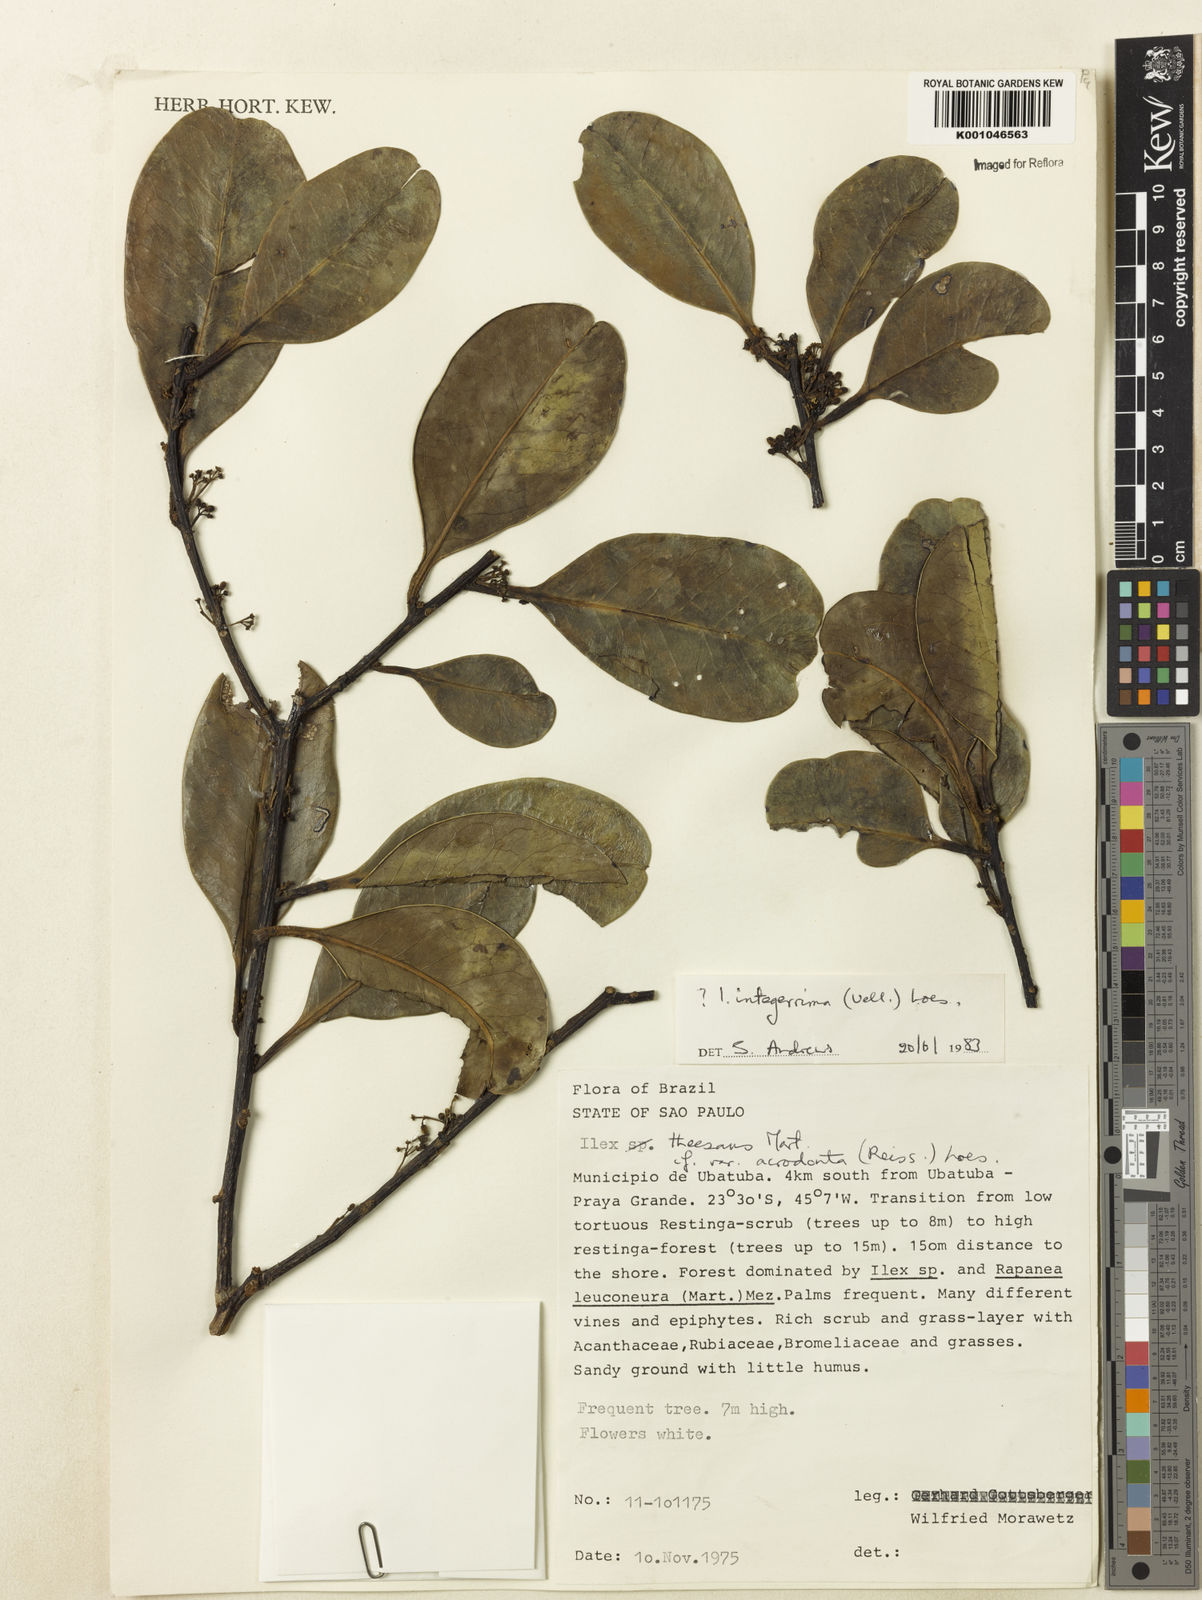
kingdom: Plantae
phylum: Tracheophyta
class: Magnoliopsida
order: Aquifoliales
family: Aquifoliaceae
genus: Ilex
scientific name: Ilex integerrima
